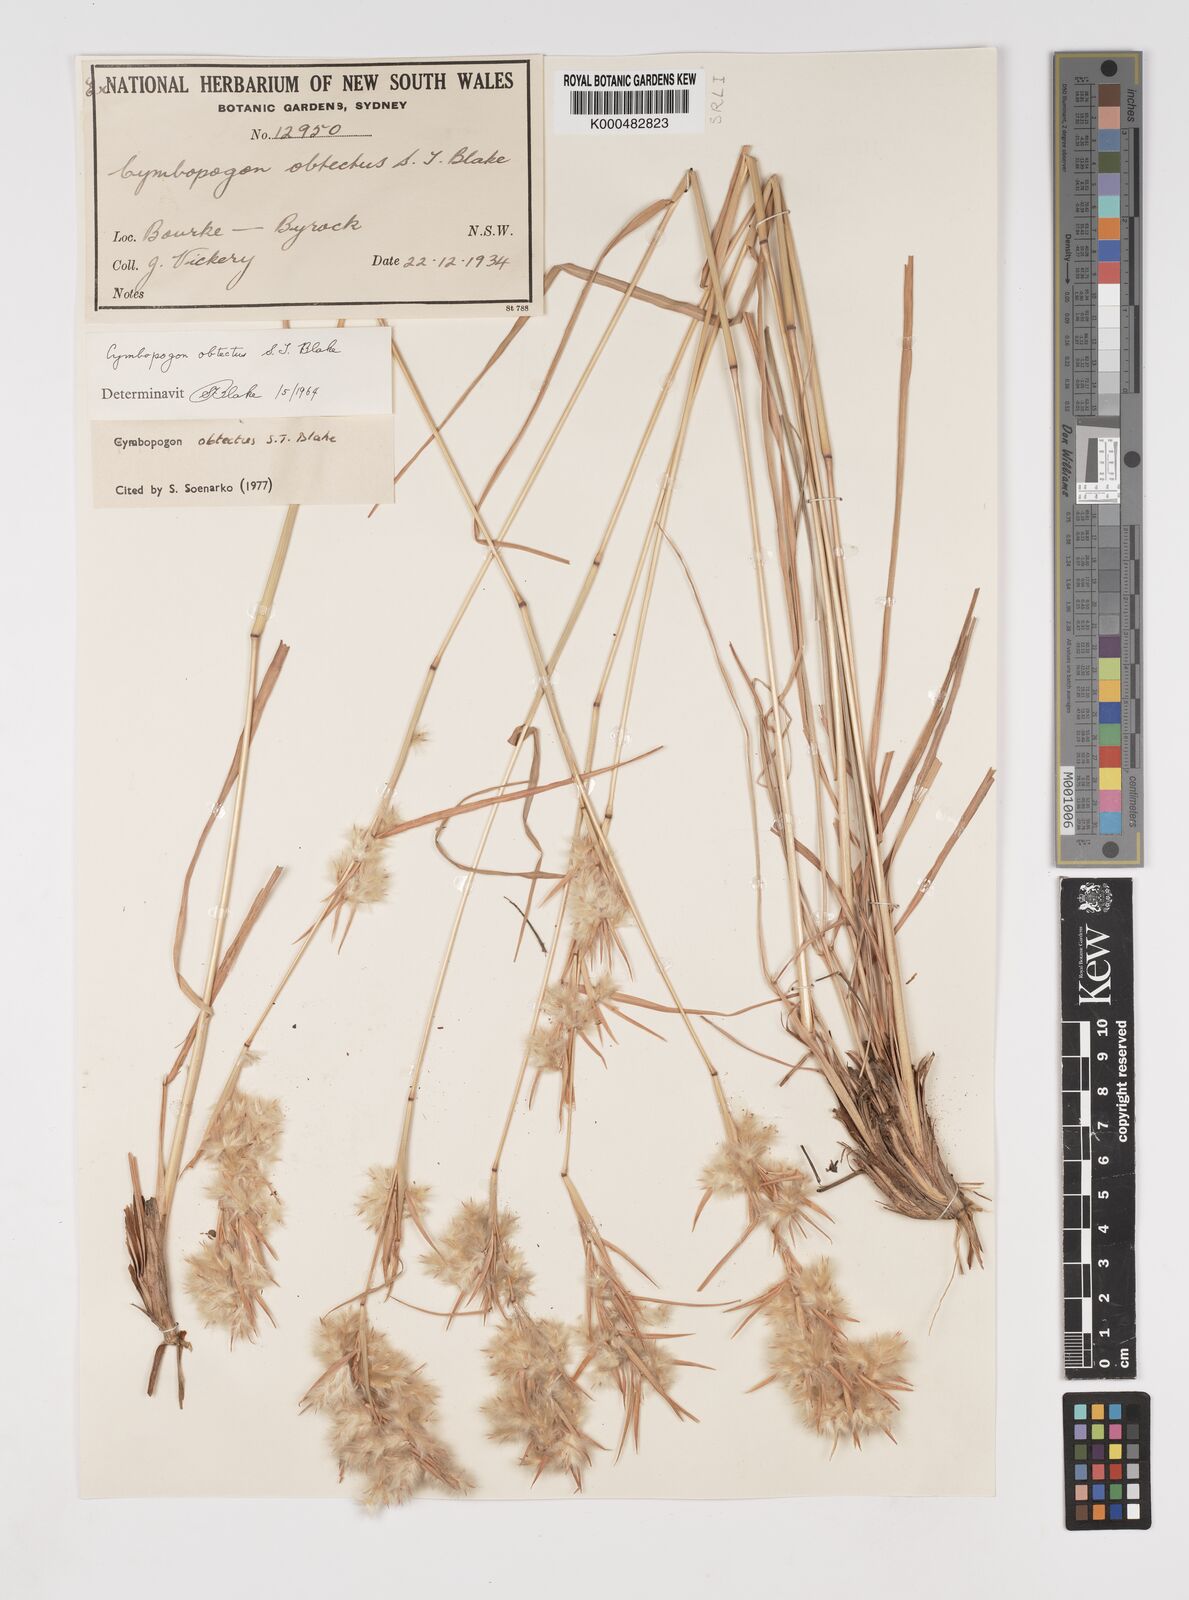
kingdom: Plantae
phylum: Tracheophyta
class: Liliopsida
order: Poales
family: Poaceae
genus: Cymbopogon
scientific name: Cymbopogon obtectus
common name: Silky heads
